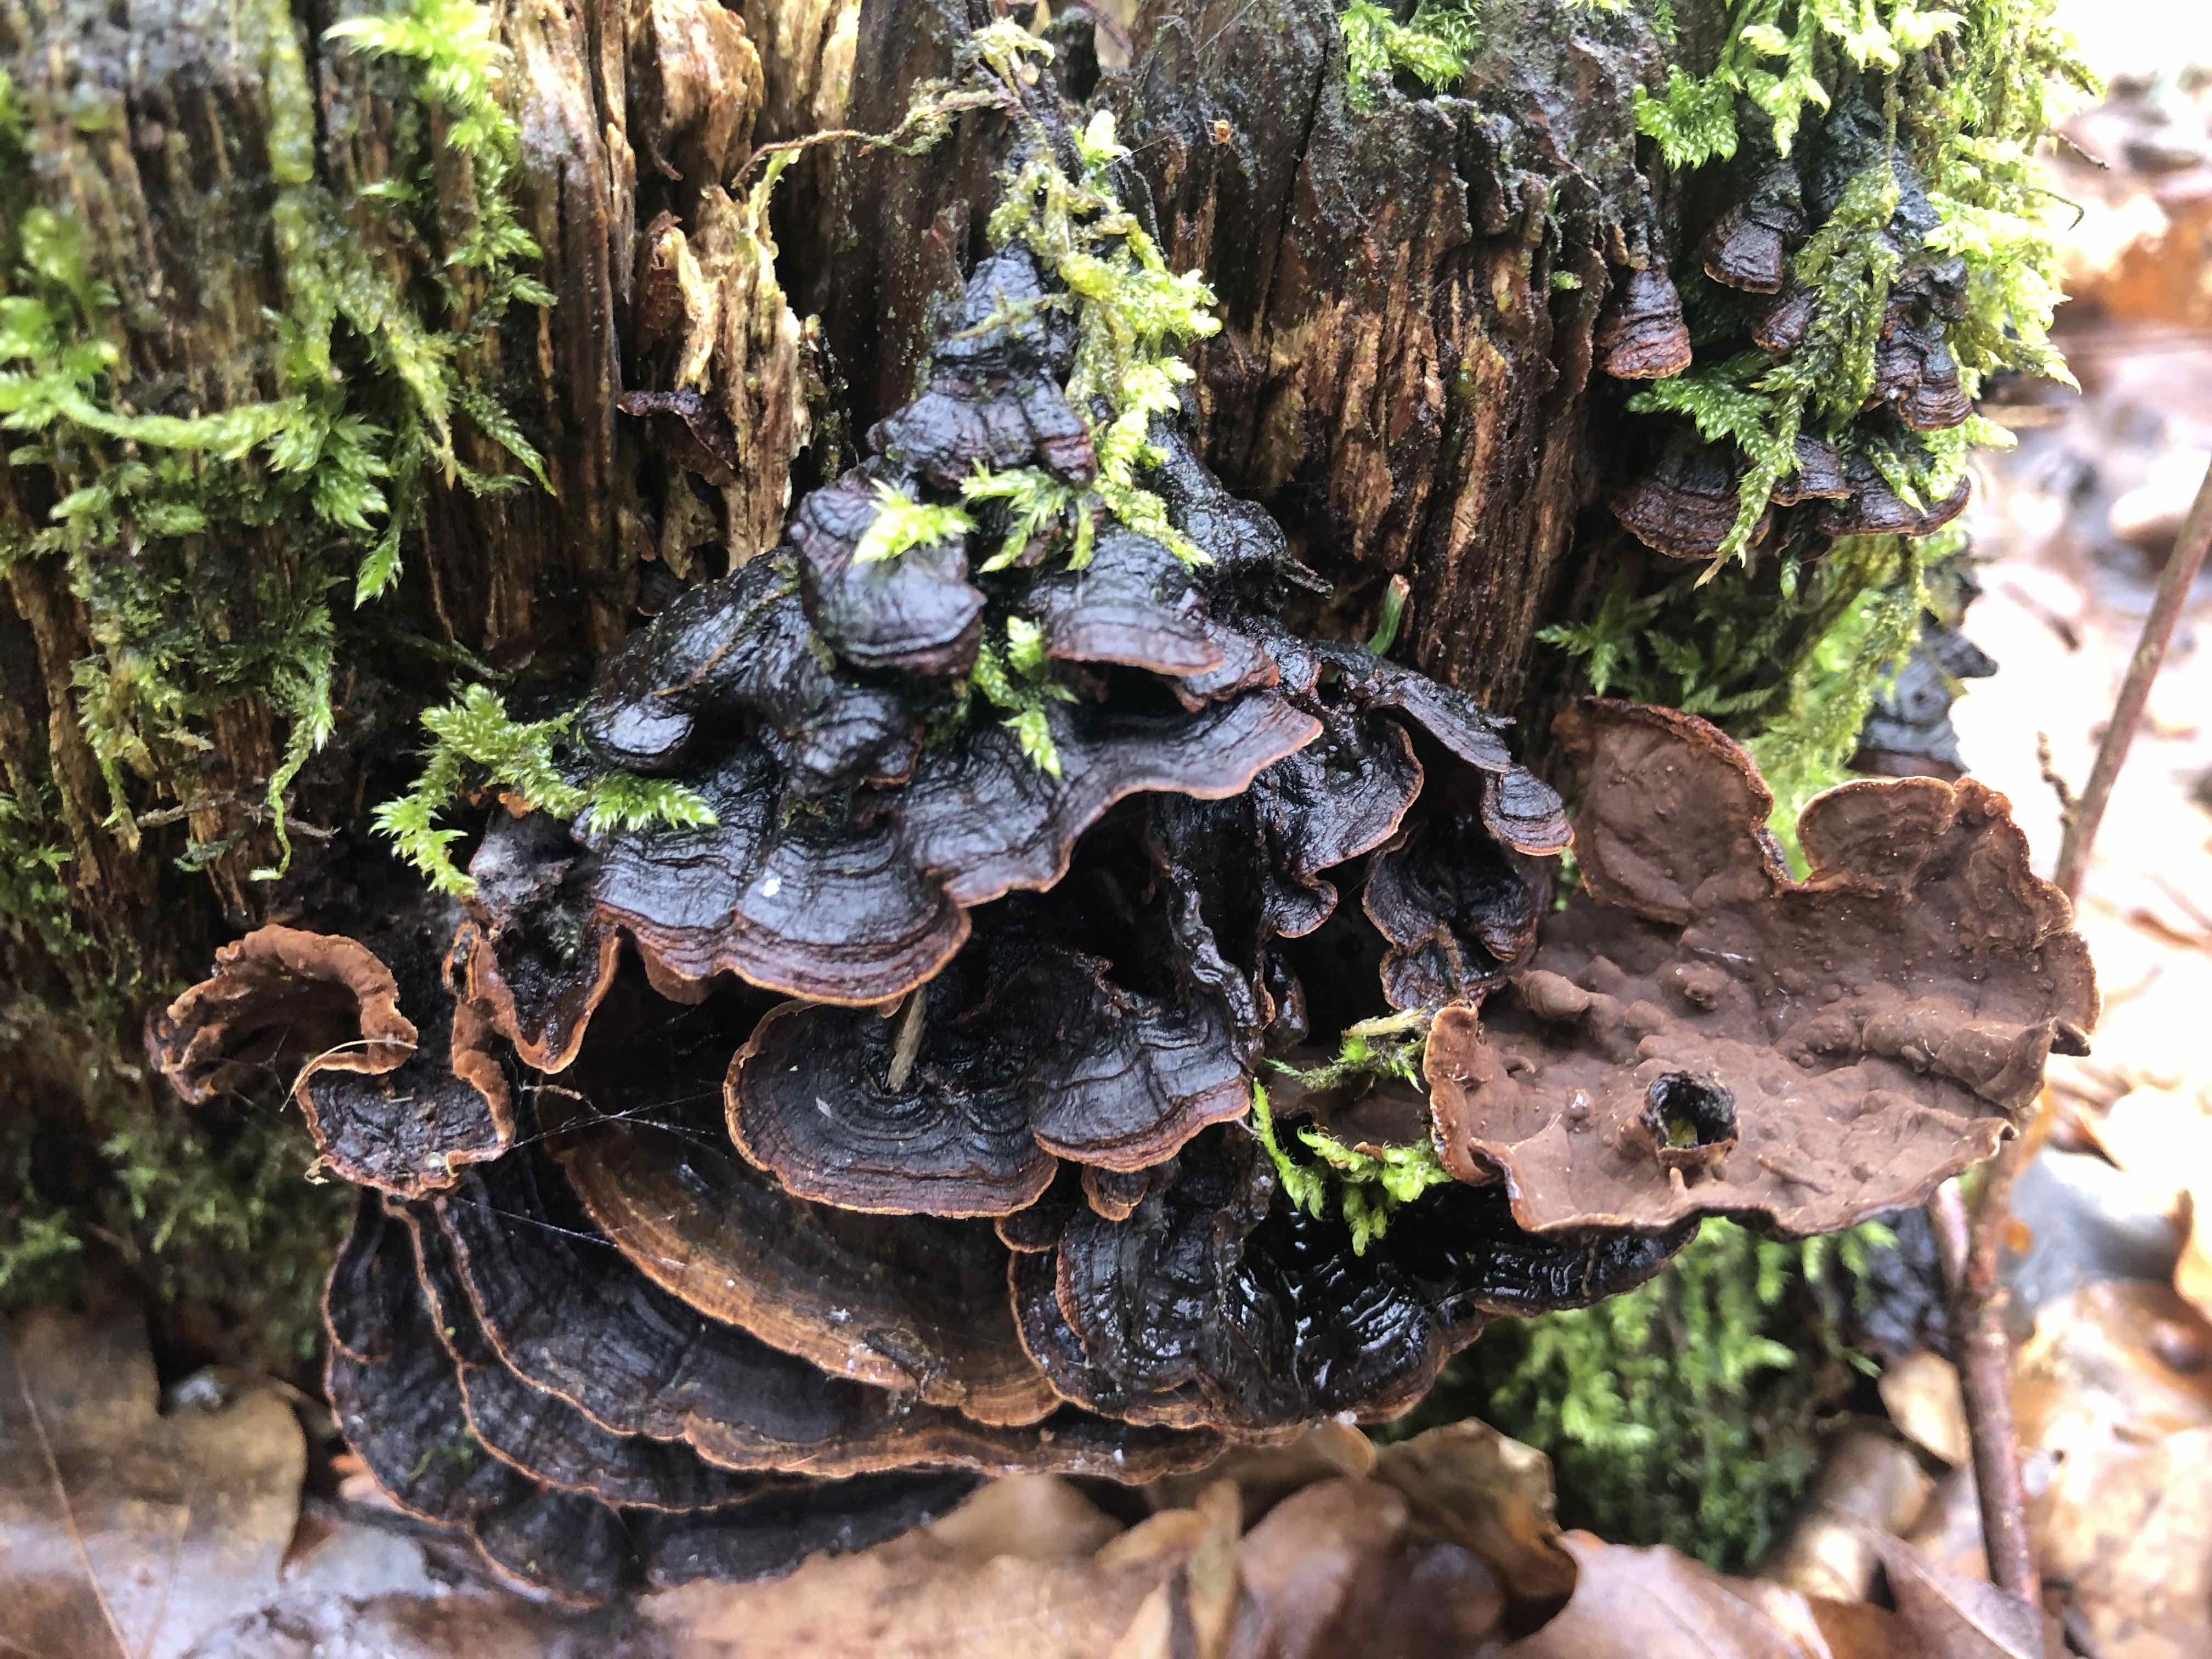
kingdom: Fungi
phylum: Basidiomycota
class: Agaricomycetes
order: Hymenochaetales
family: Hymenochaetaceae
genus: Hymenochaete
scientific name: Hymenochaete rubiginosa
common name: stiv ruslædersvamp
